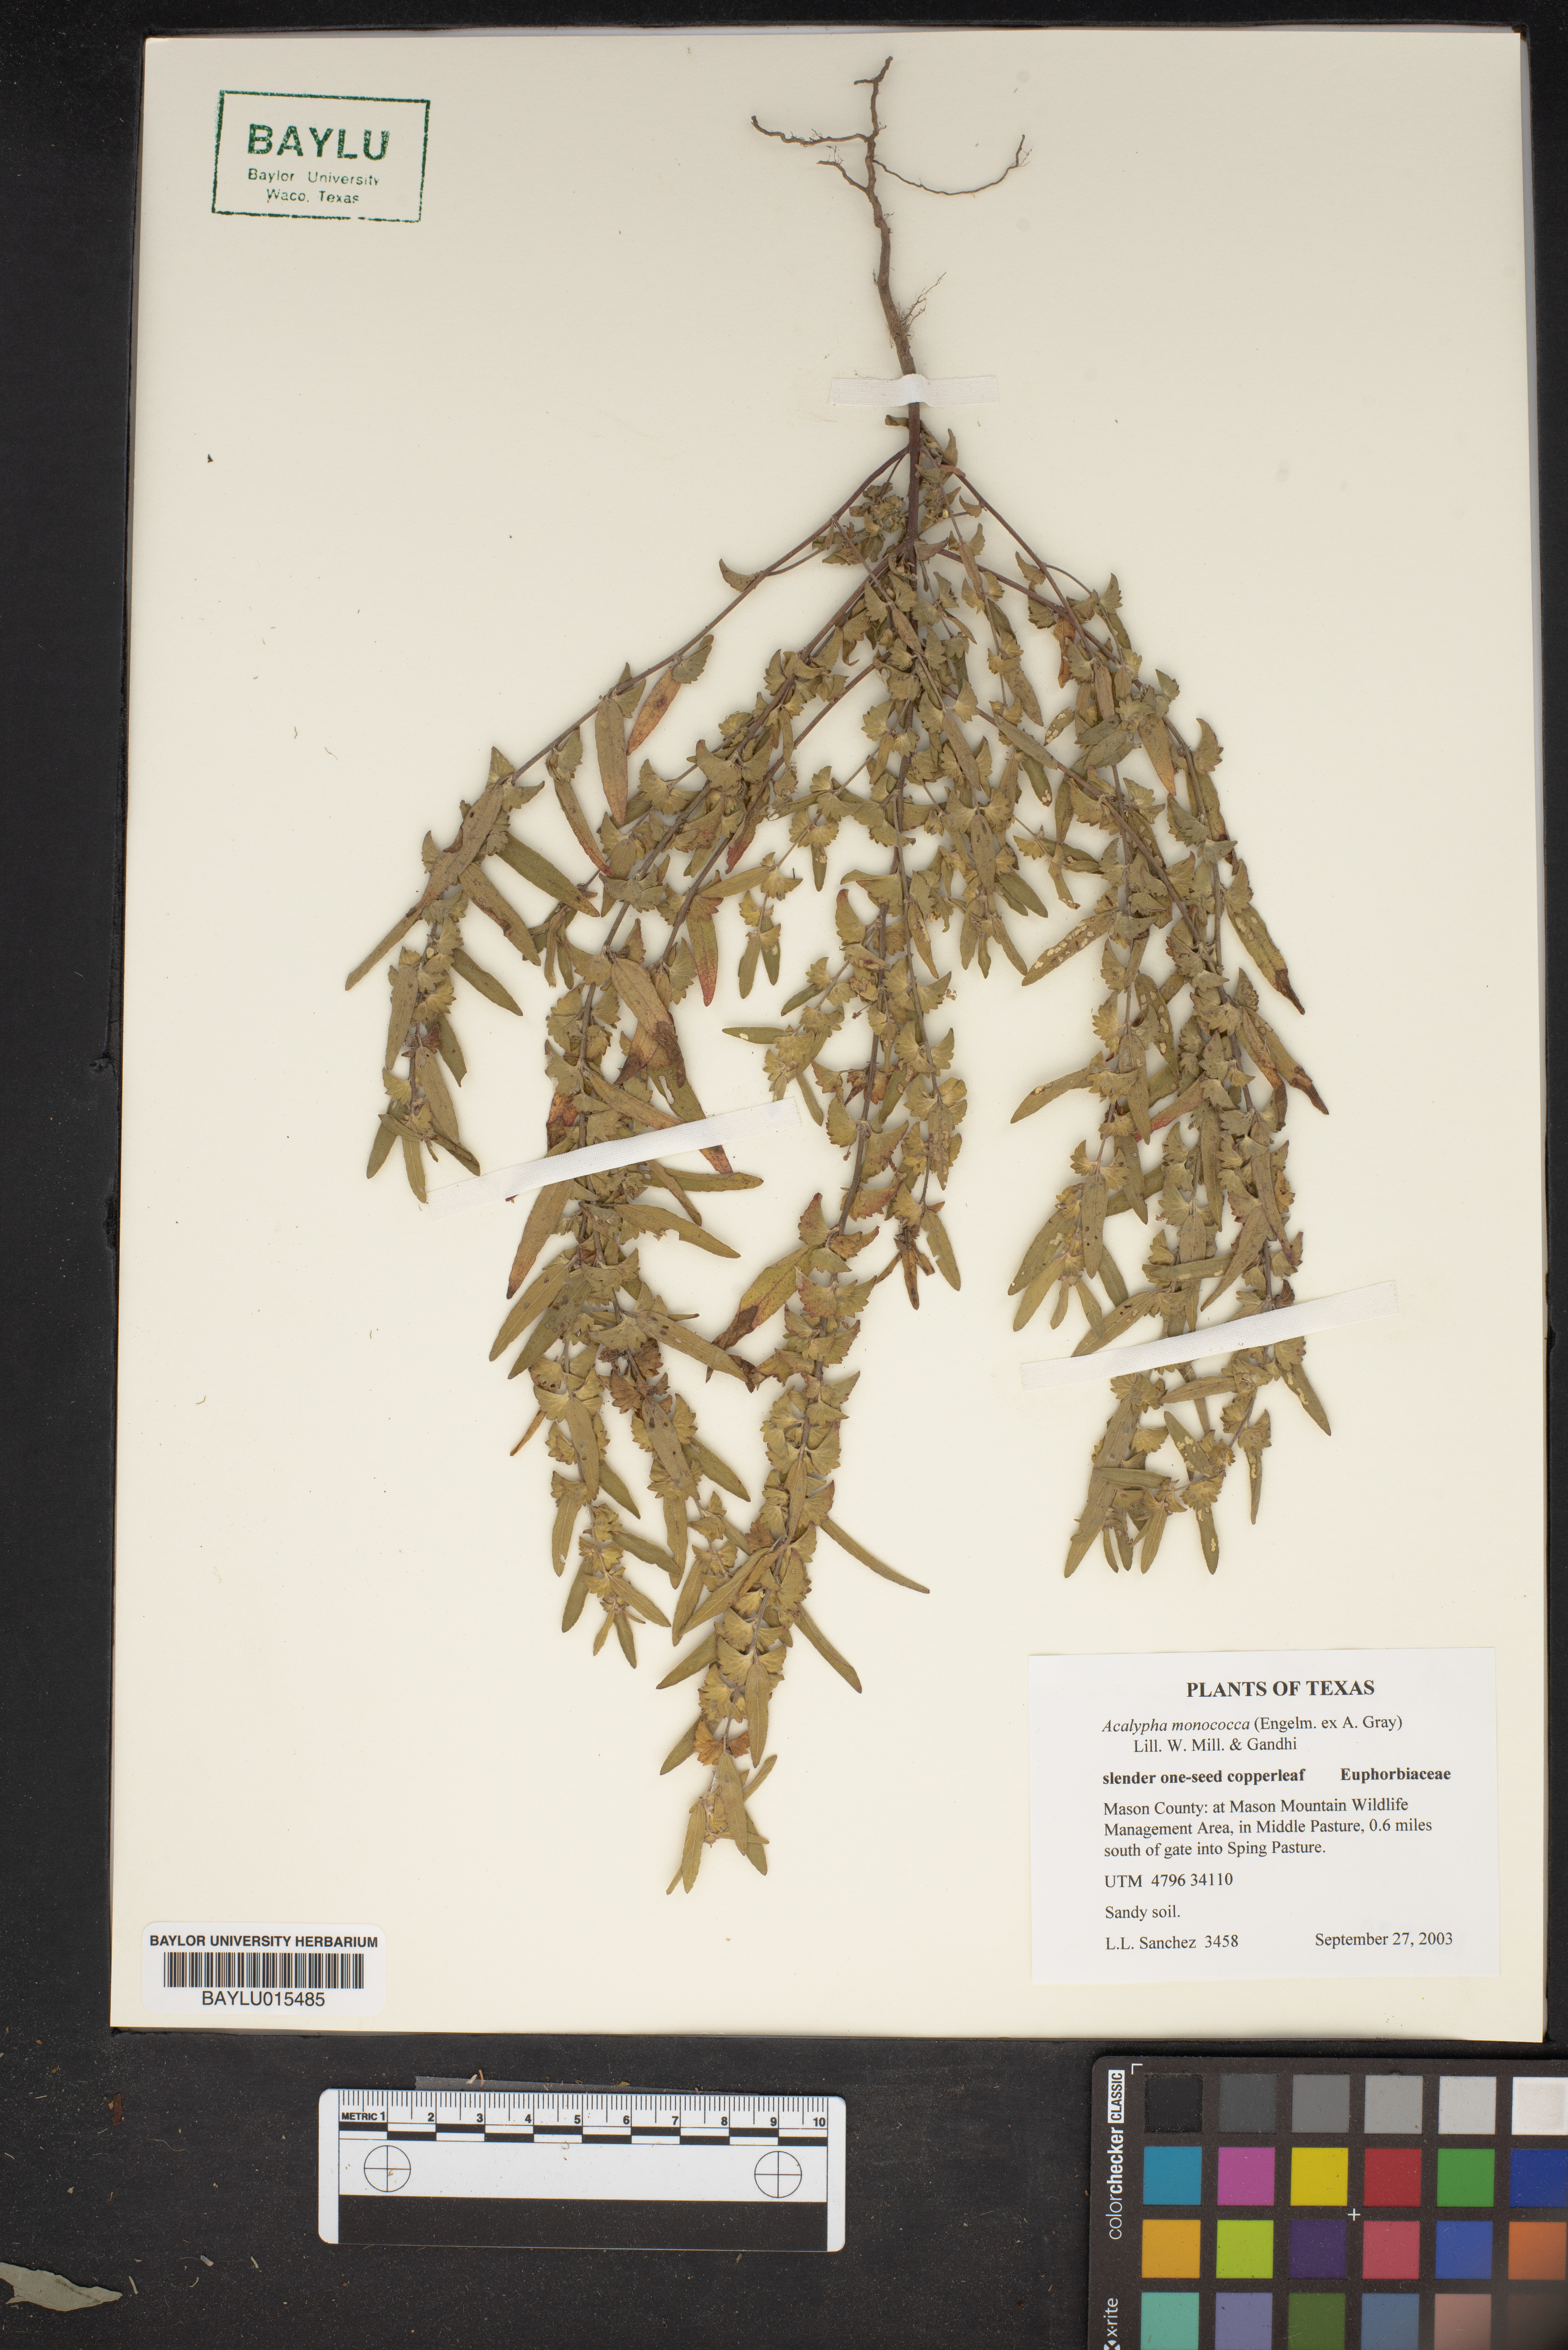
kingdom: Plantae
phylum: Tracheophyta
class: Magnoliopsida
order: Malpighiales
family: Euphorbiaceae
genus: Acalypha
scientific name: Acalypha monococca
